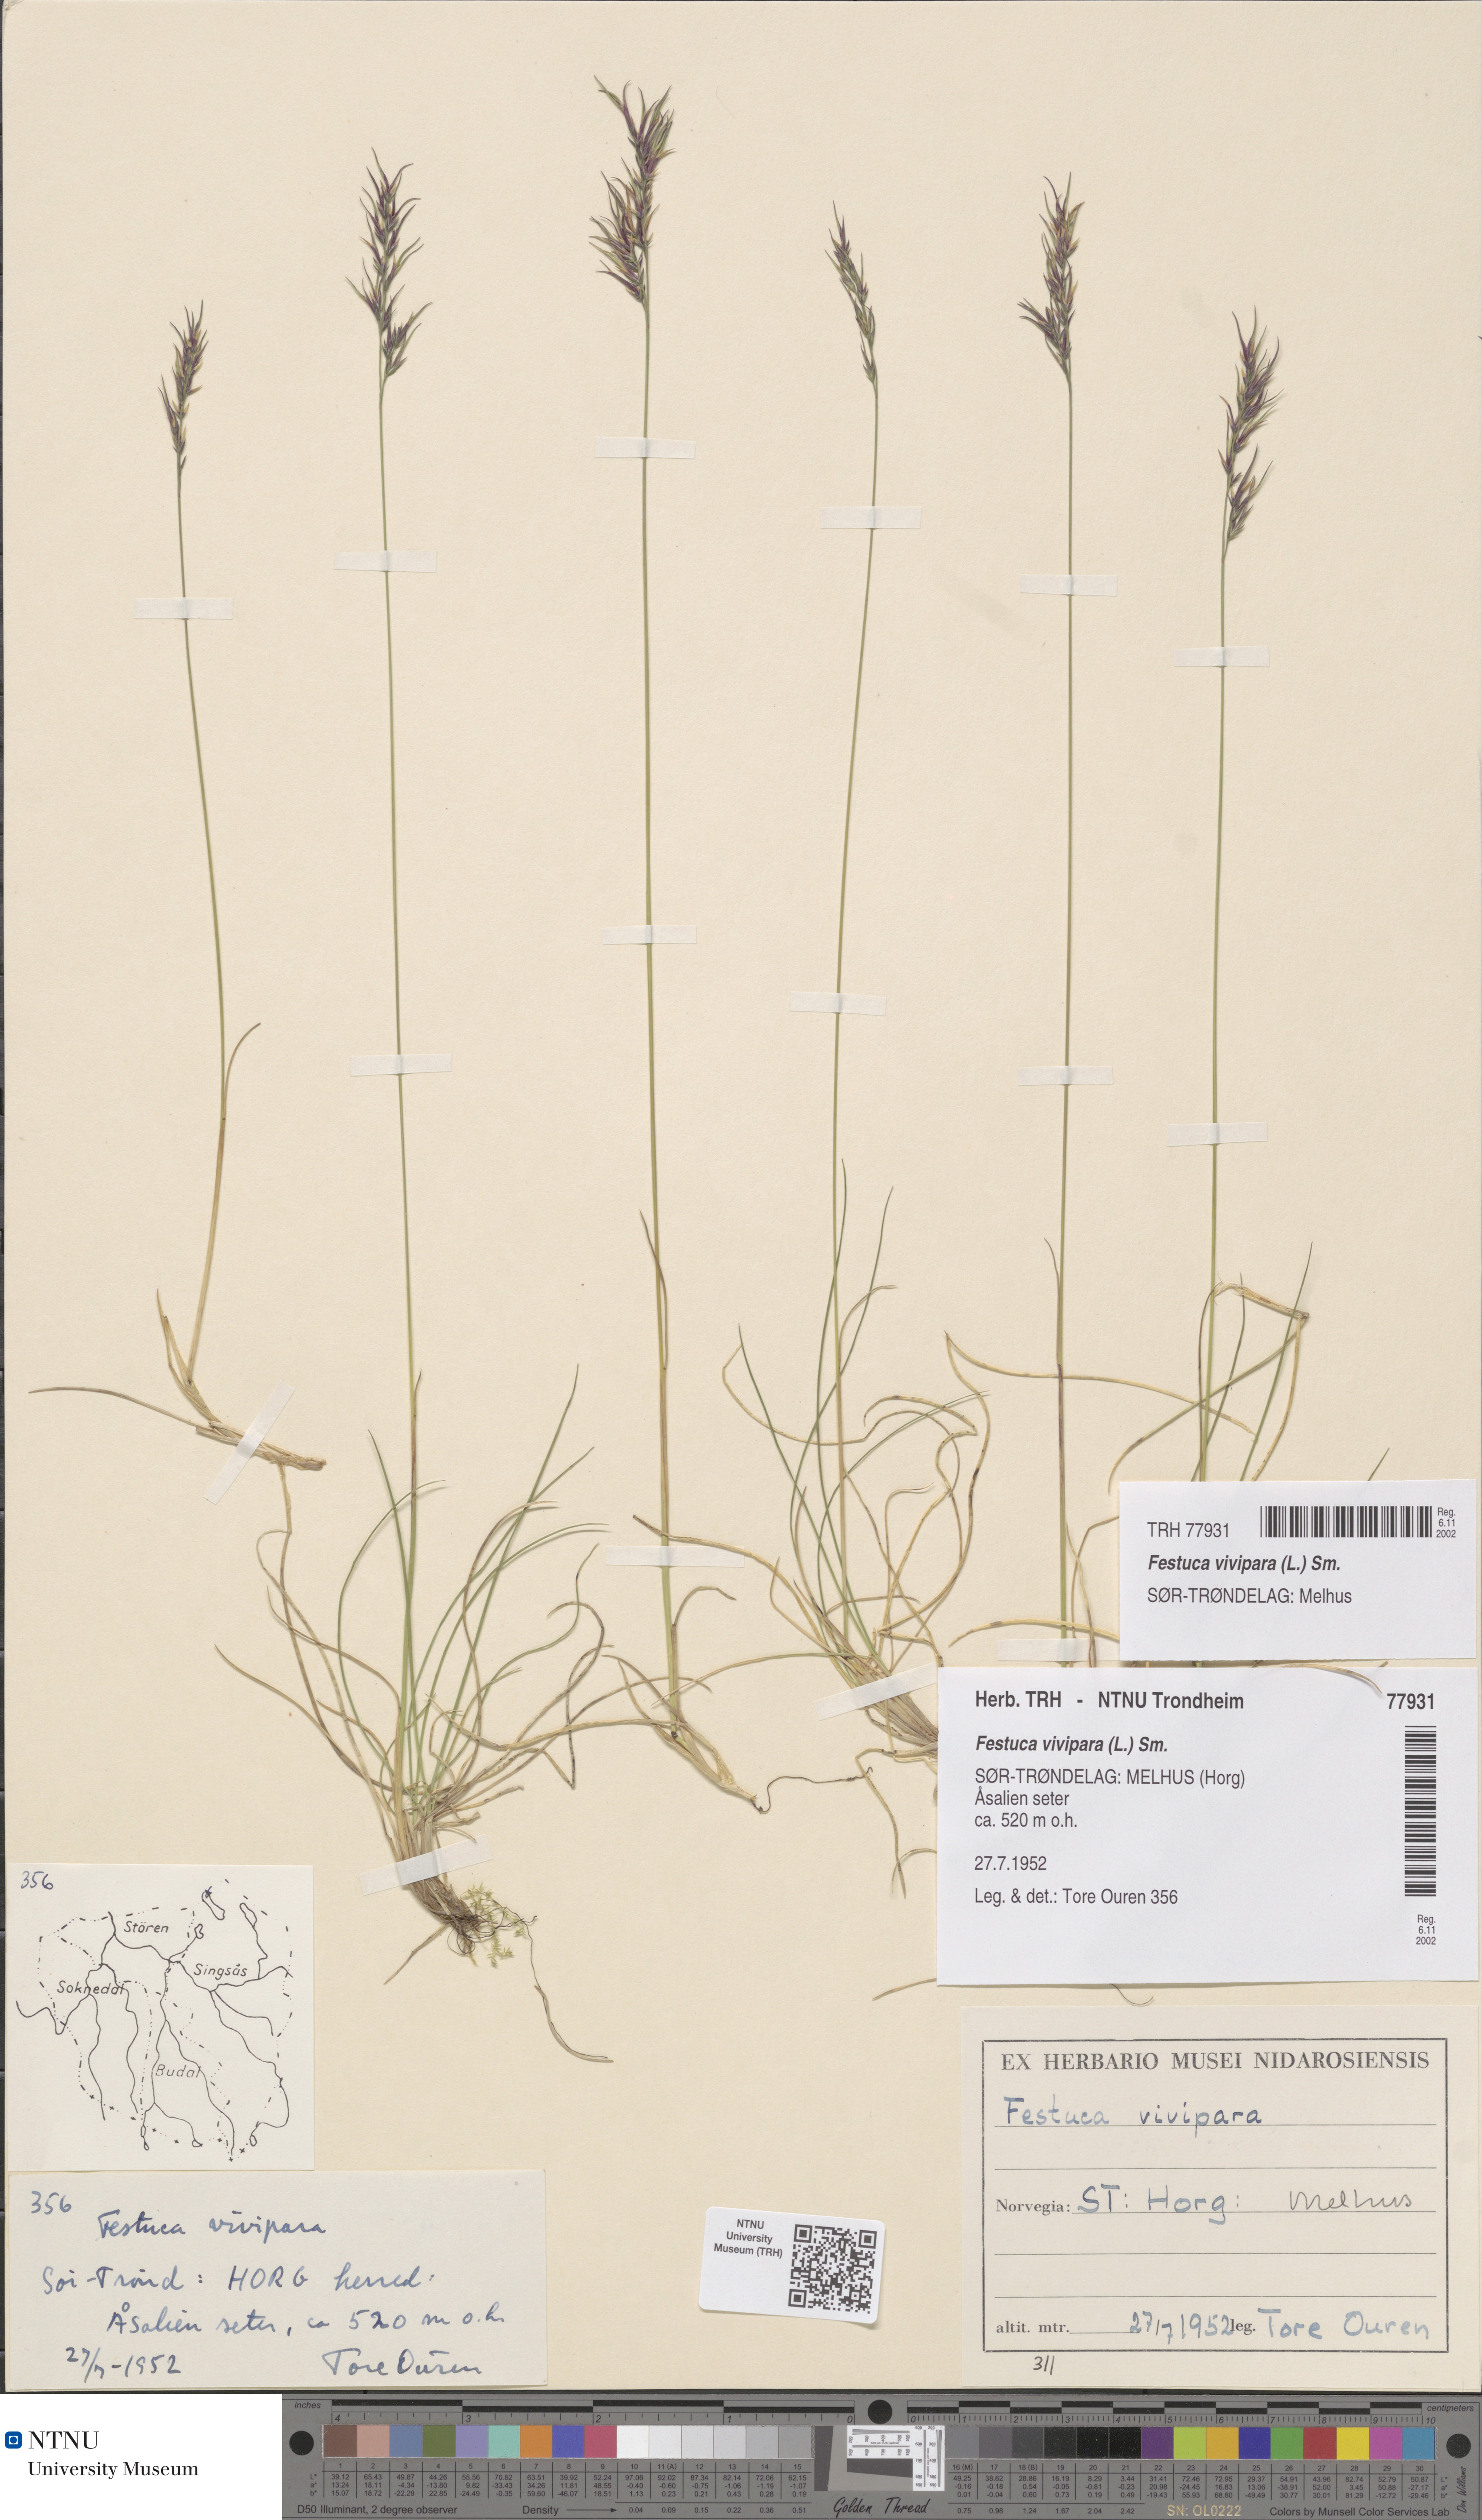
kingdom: Plantae
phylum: Tracheophyta
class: Liliopsida
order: Poales
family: Poaceae
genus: Festuca
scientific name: Festuca vivipara
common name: Viviparous sheep's-fescue
